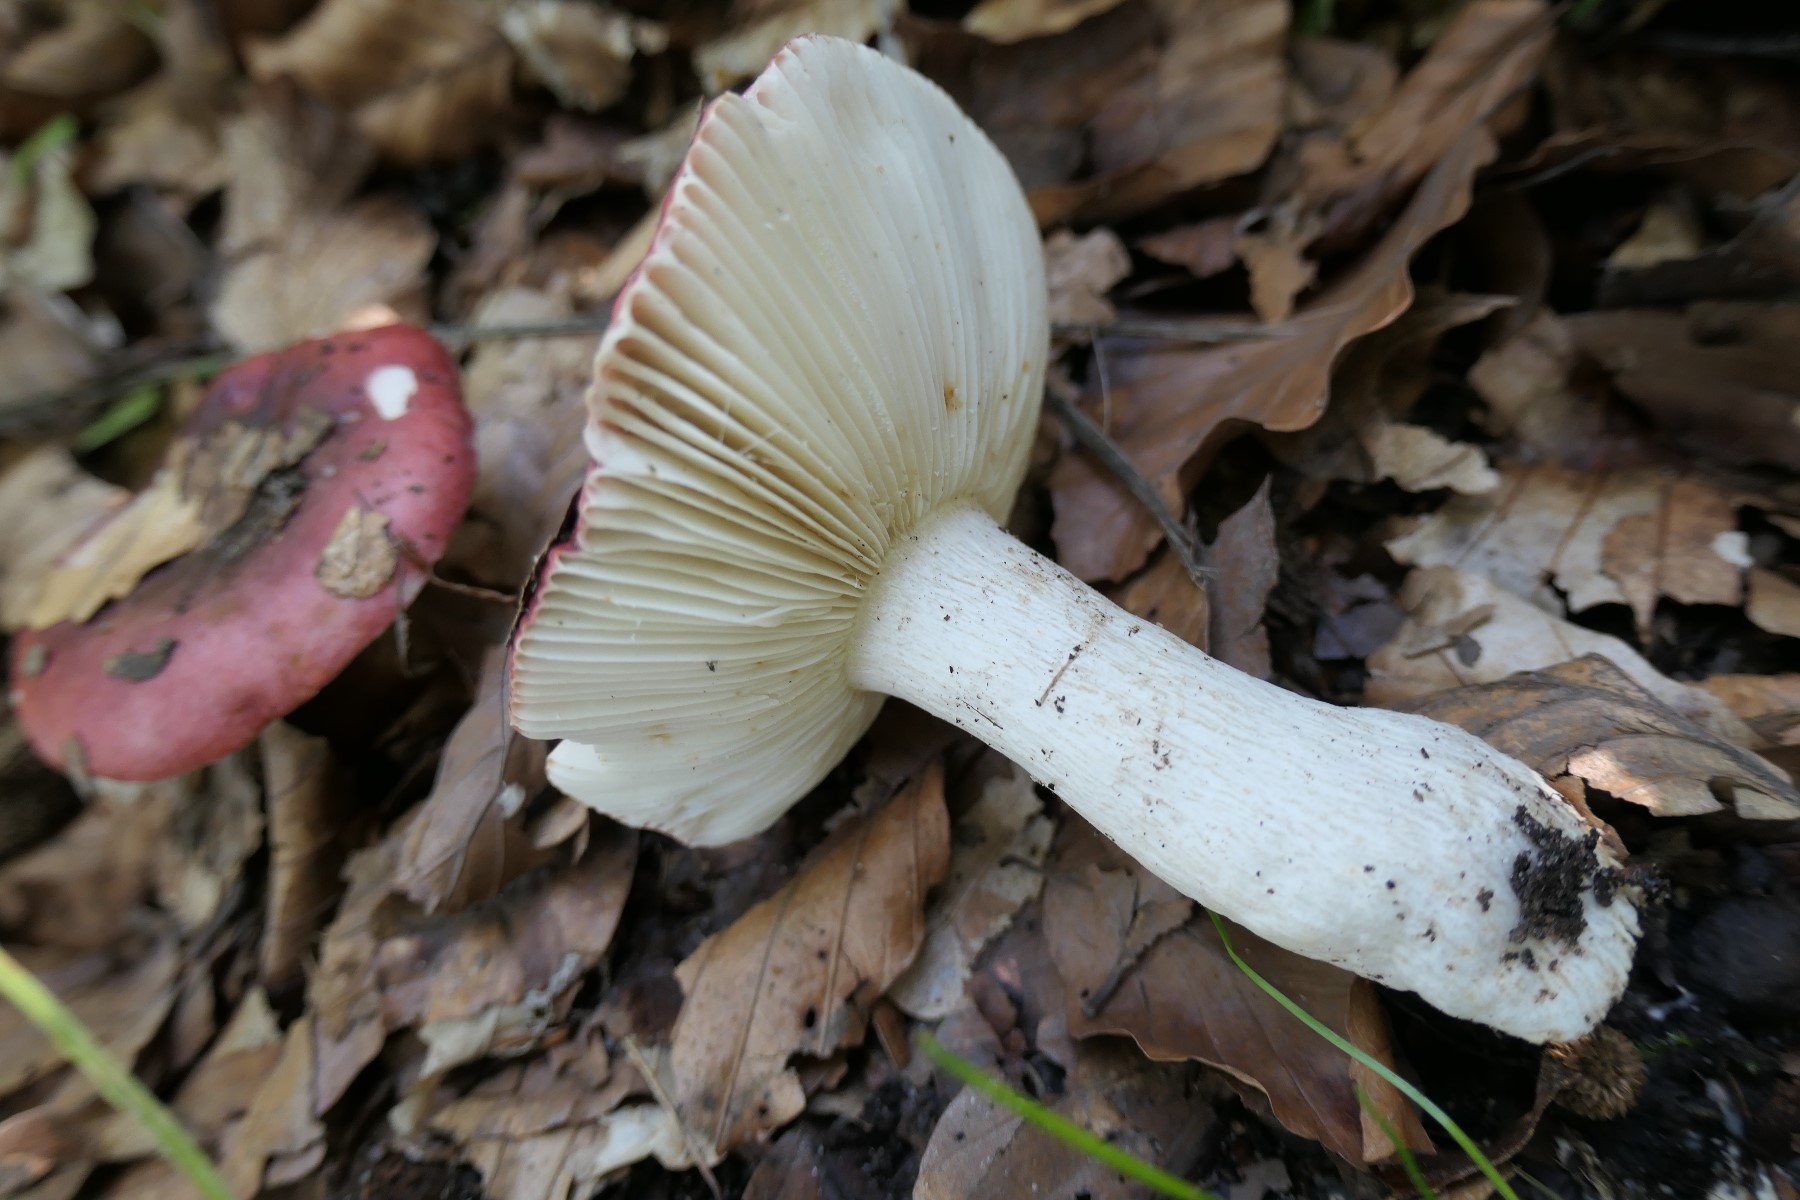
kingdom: Fungi
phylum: Basidiomycota
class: Agaricomycetes
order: Russulales
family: Russulaceae
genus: Russula
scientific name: Russula atropurpurea
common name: purpurbroget skørhat
